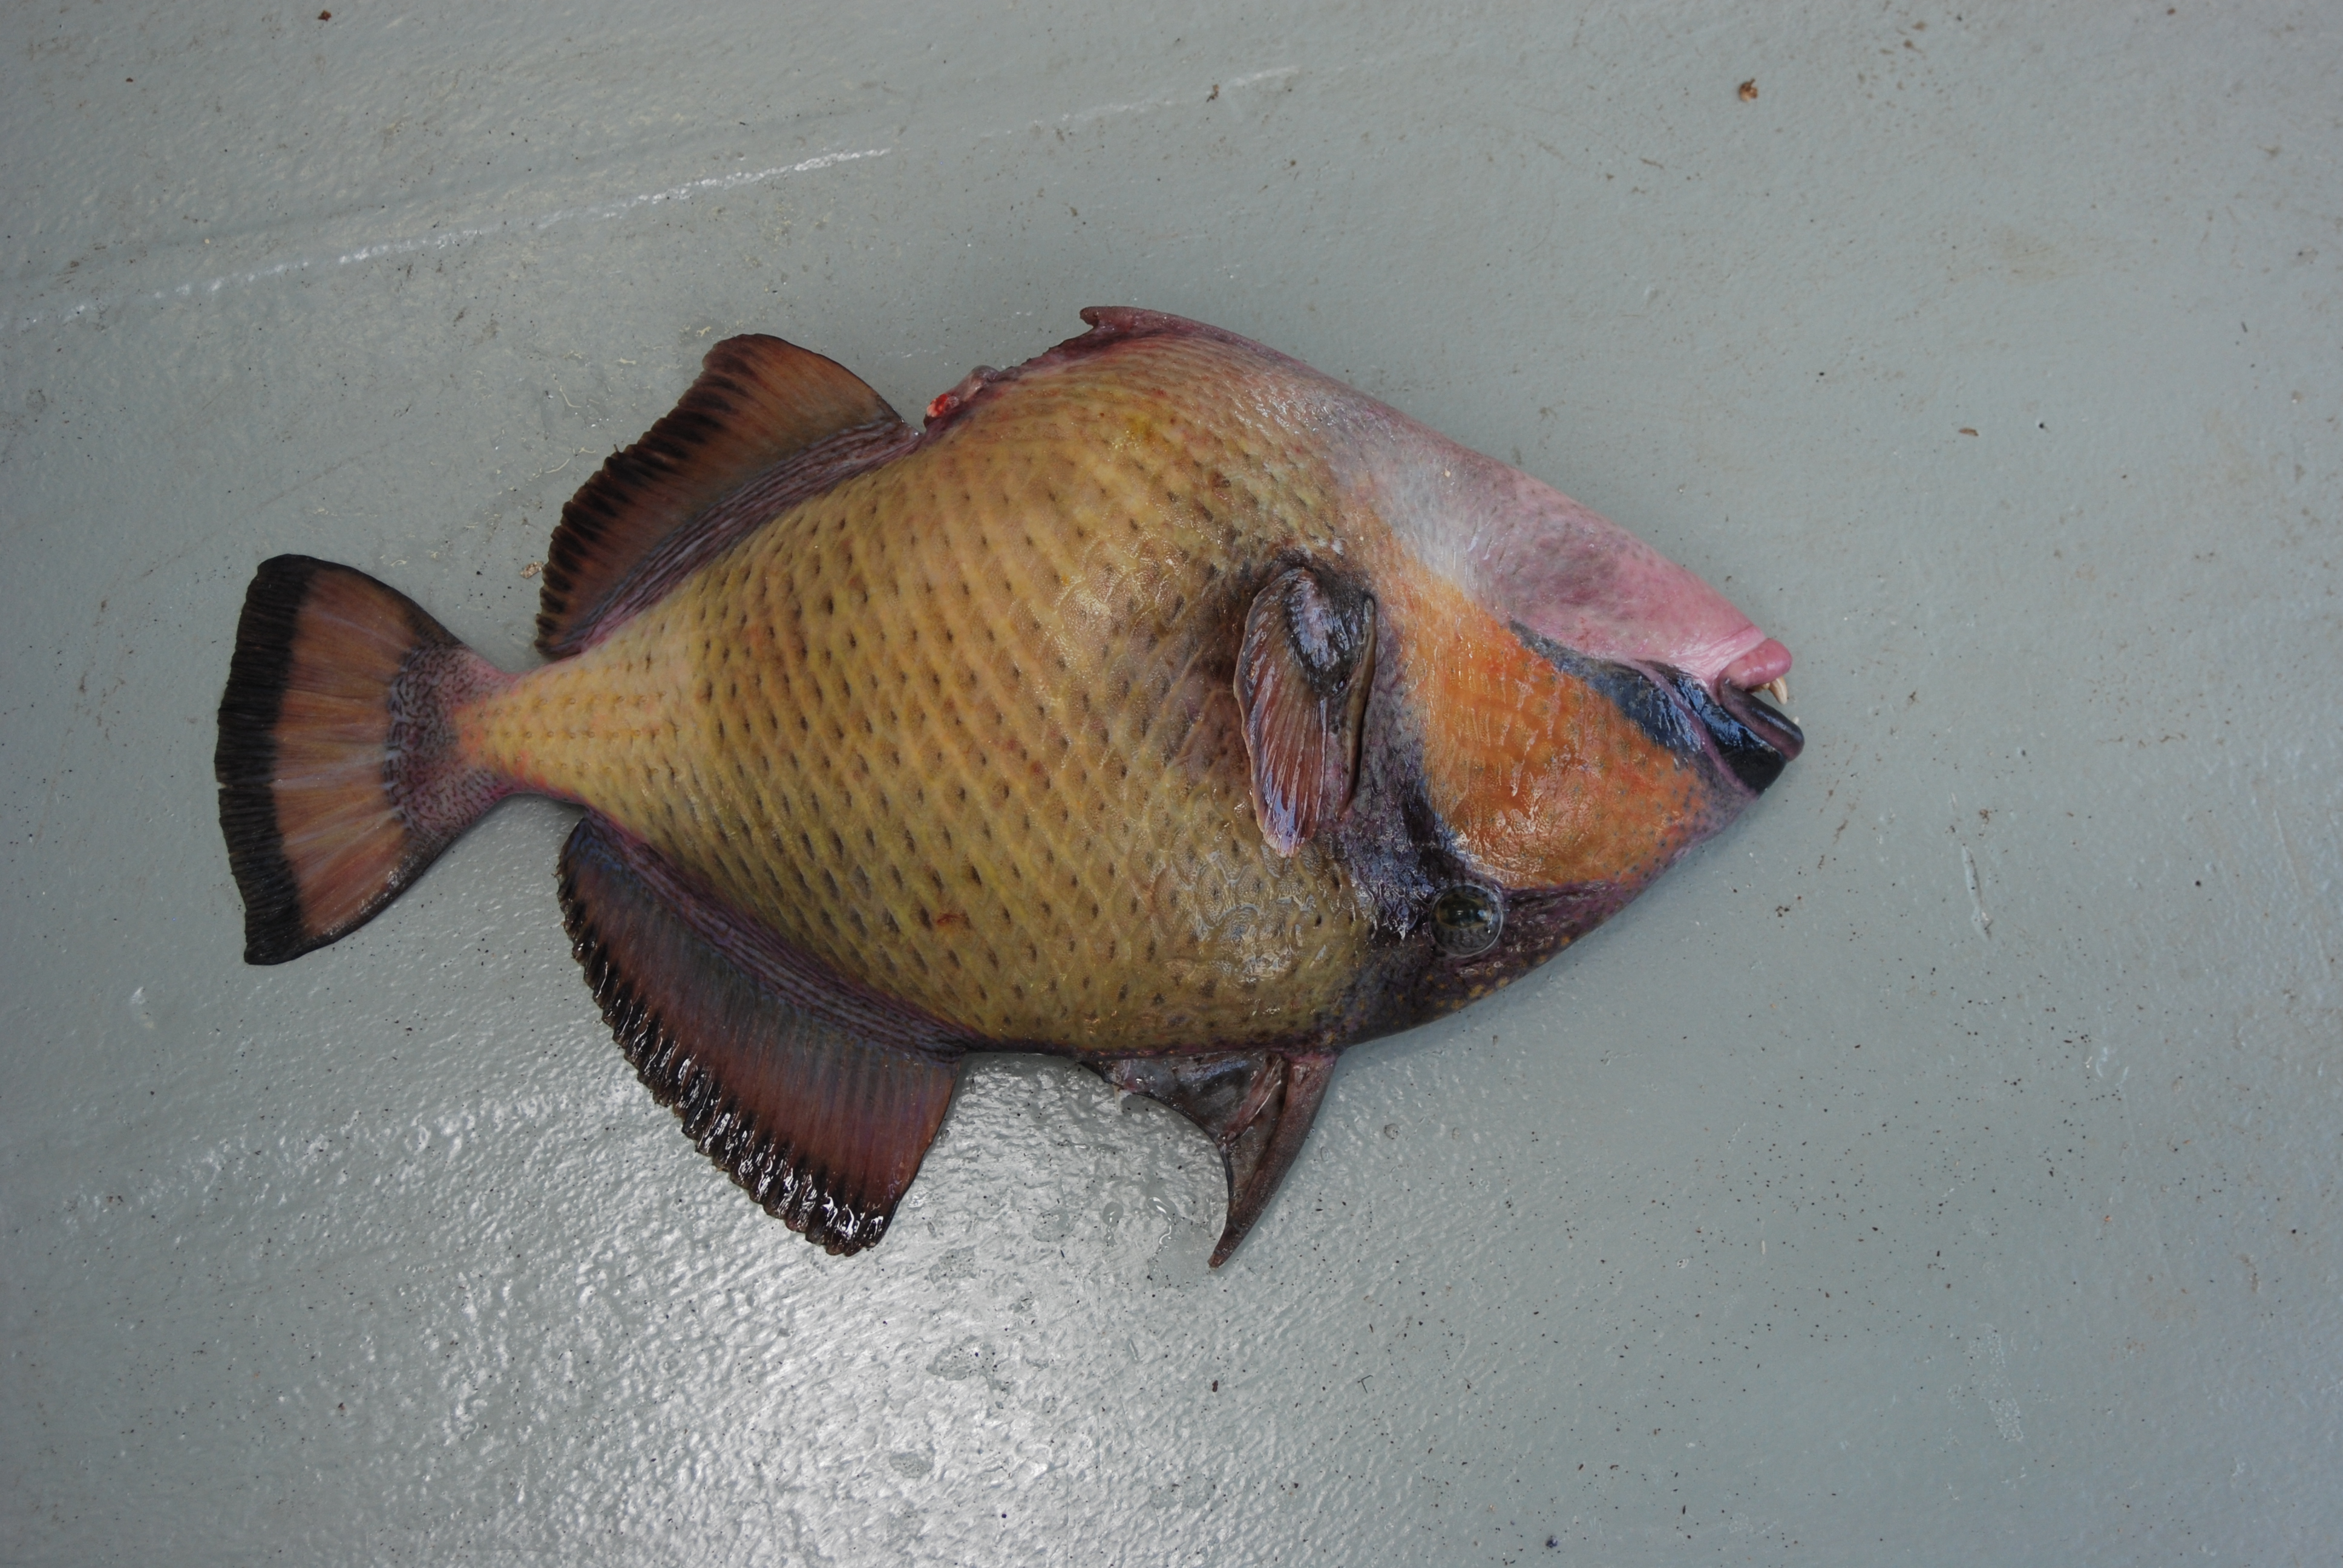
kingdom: Animalia
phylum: Chordata
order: Tetraodontiformes
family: Balistidae
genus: Balistoides
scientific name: Balistoides viridescens
